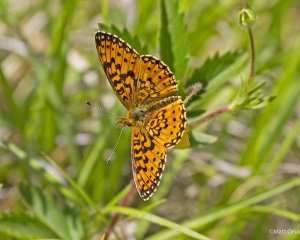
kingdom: Animalia
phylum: Arthropoda
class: Insecta
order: Lepidoptera
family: Nymphalidae
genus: Boloria
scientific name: Boloria selene
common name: Silver-bordered Fritillary
